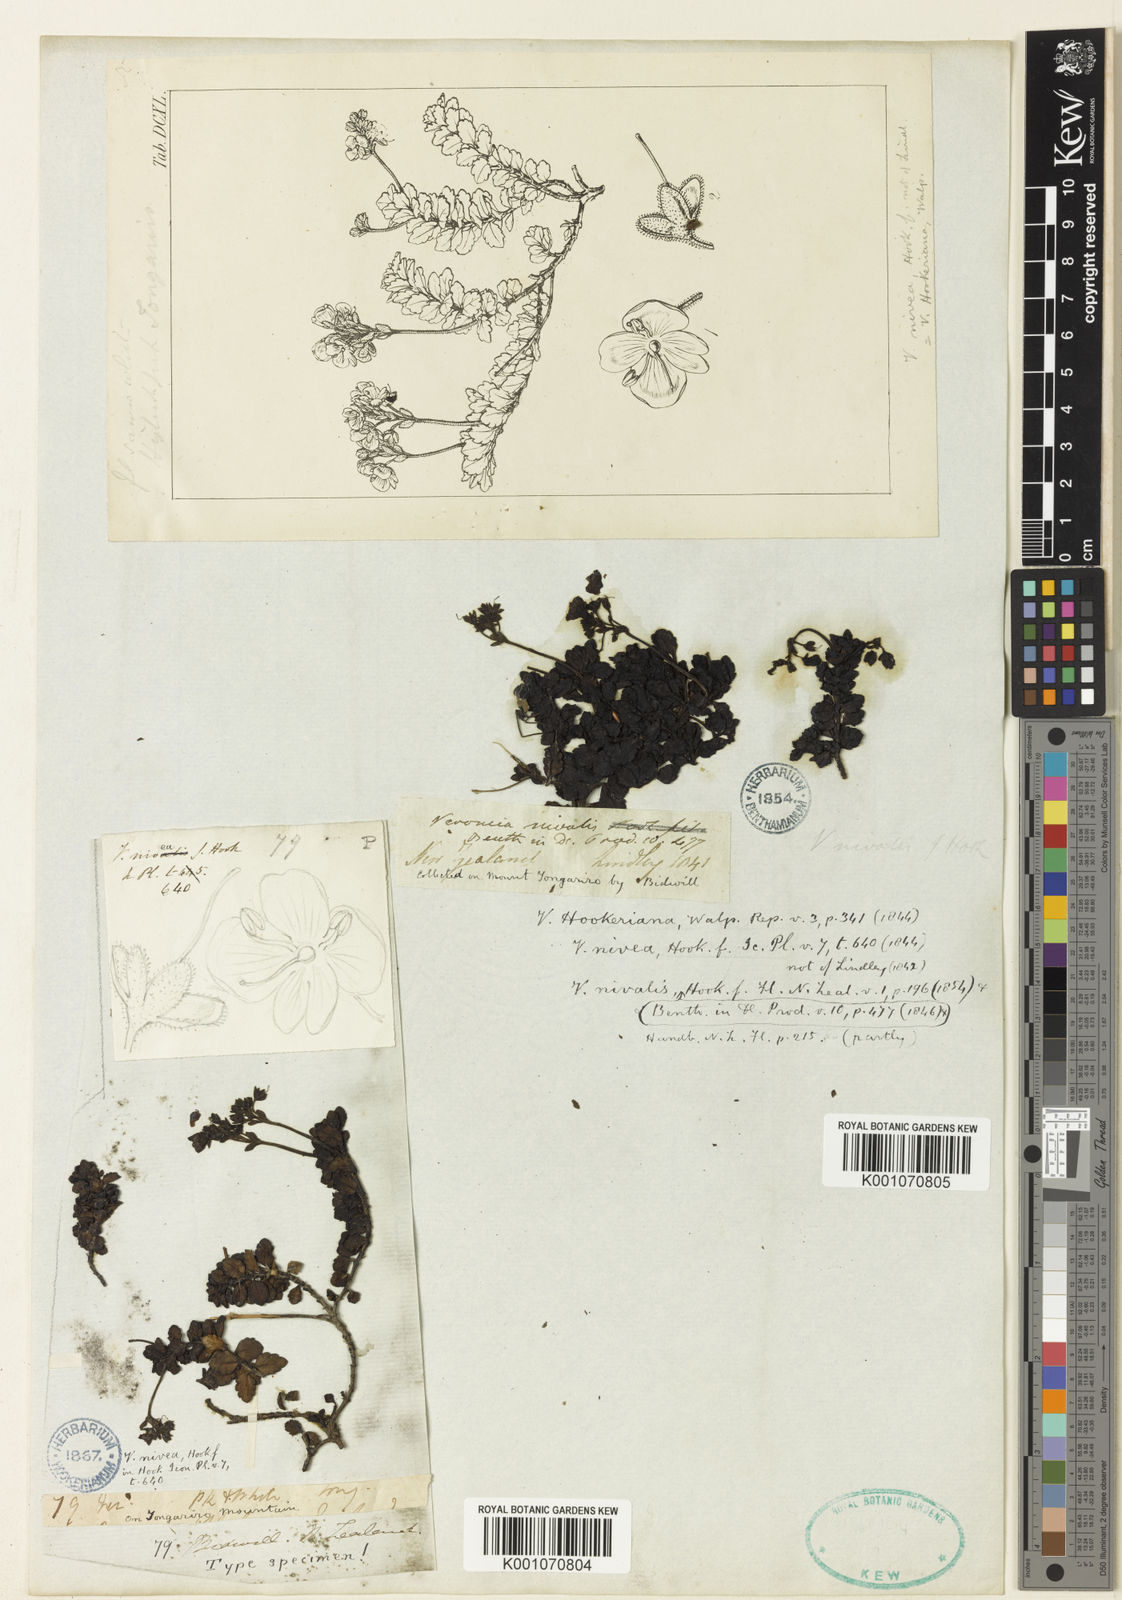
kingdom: Plantae
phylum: Tracheophyta
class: Magnoliopsida
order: Lamiales
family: Plantaginaceae
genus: Veronica
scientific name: Veronica hookeriana
